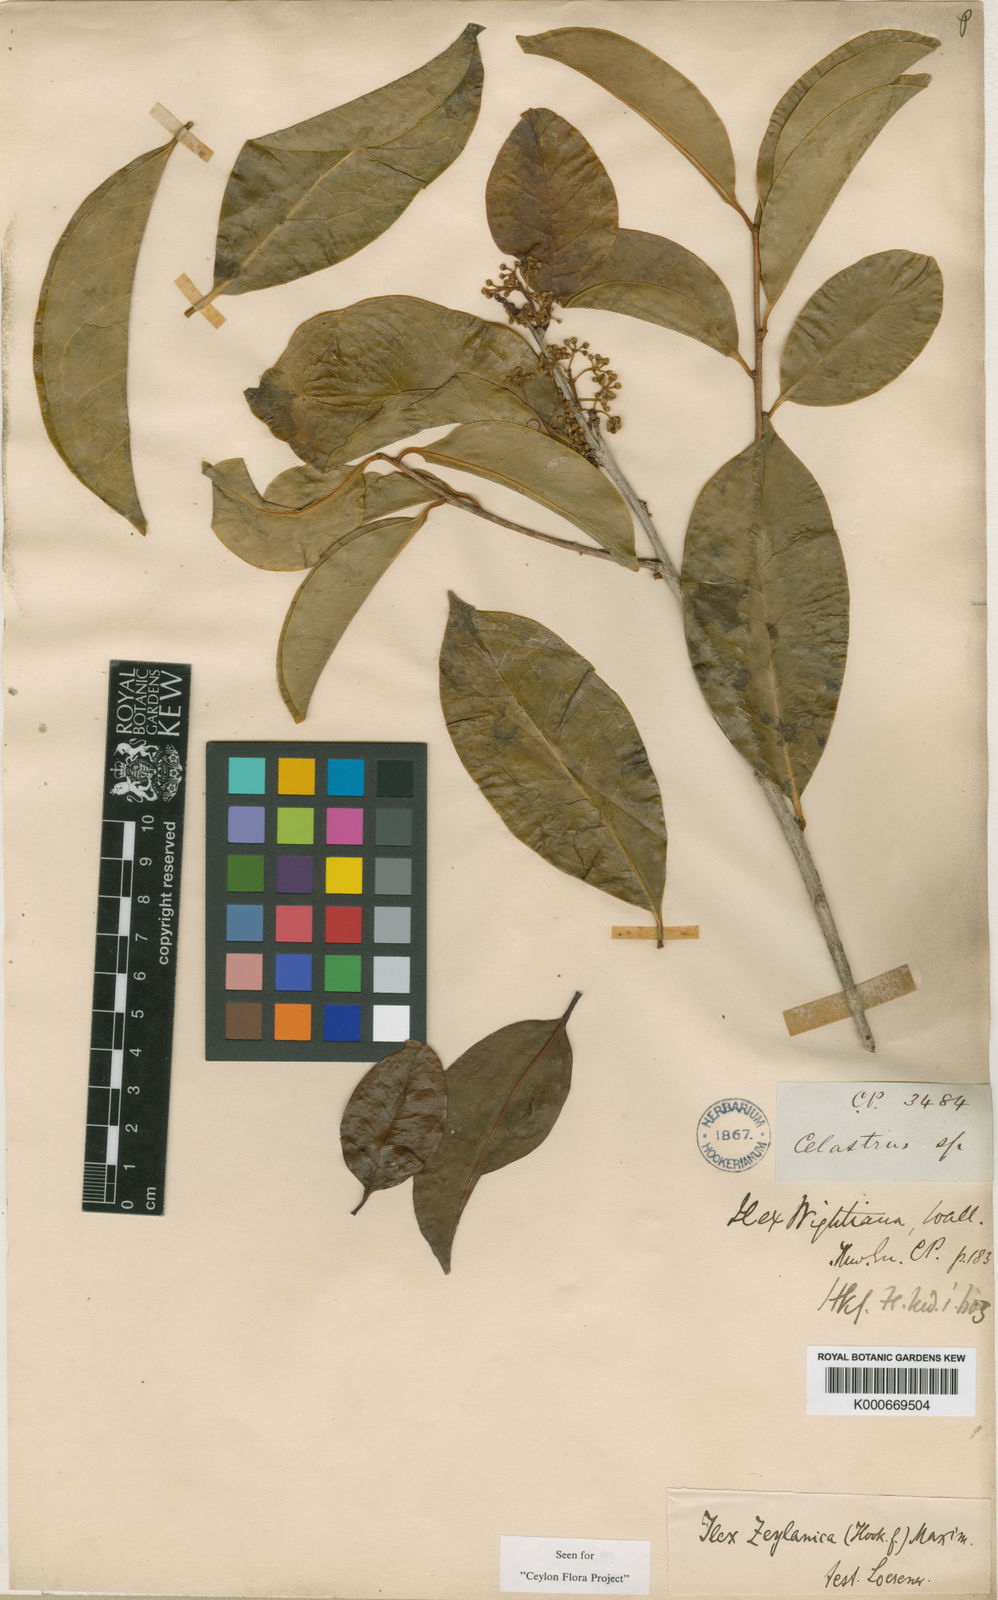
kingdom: Plantae
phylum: Tracheophyta
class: Magnoliopsida
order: Aquifoliales
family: Aquifoliaceae
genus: Ilex
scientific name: Ilex zeylanica
